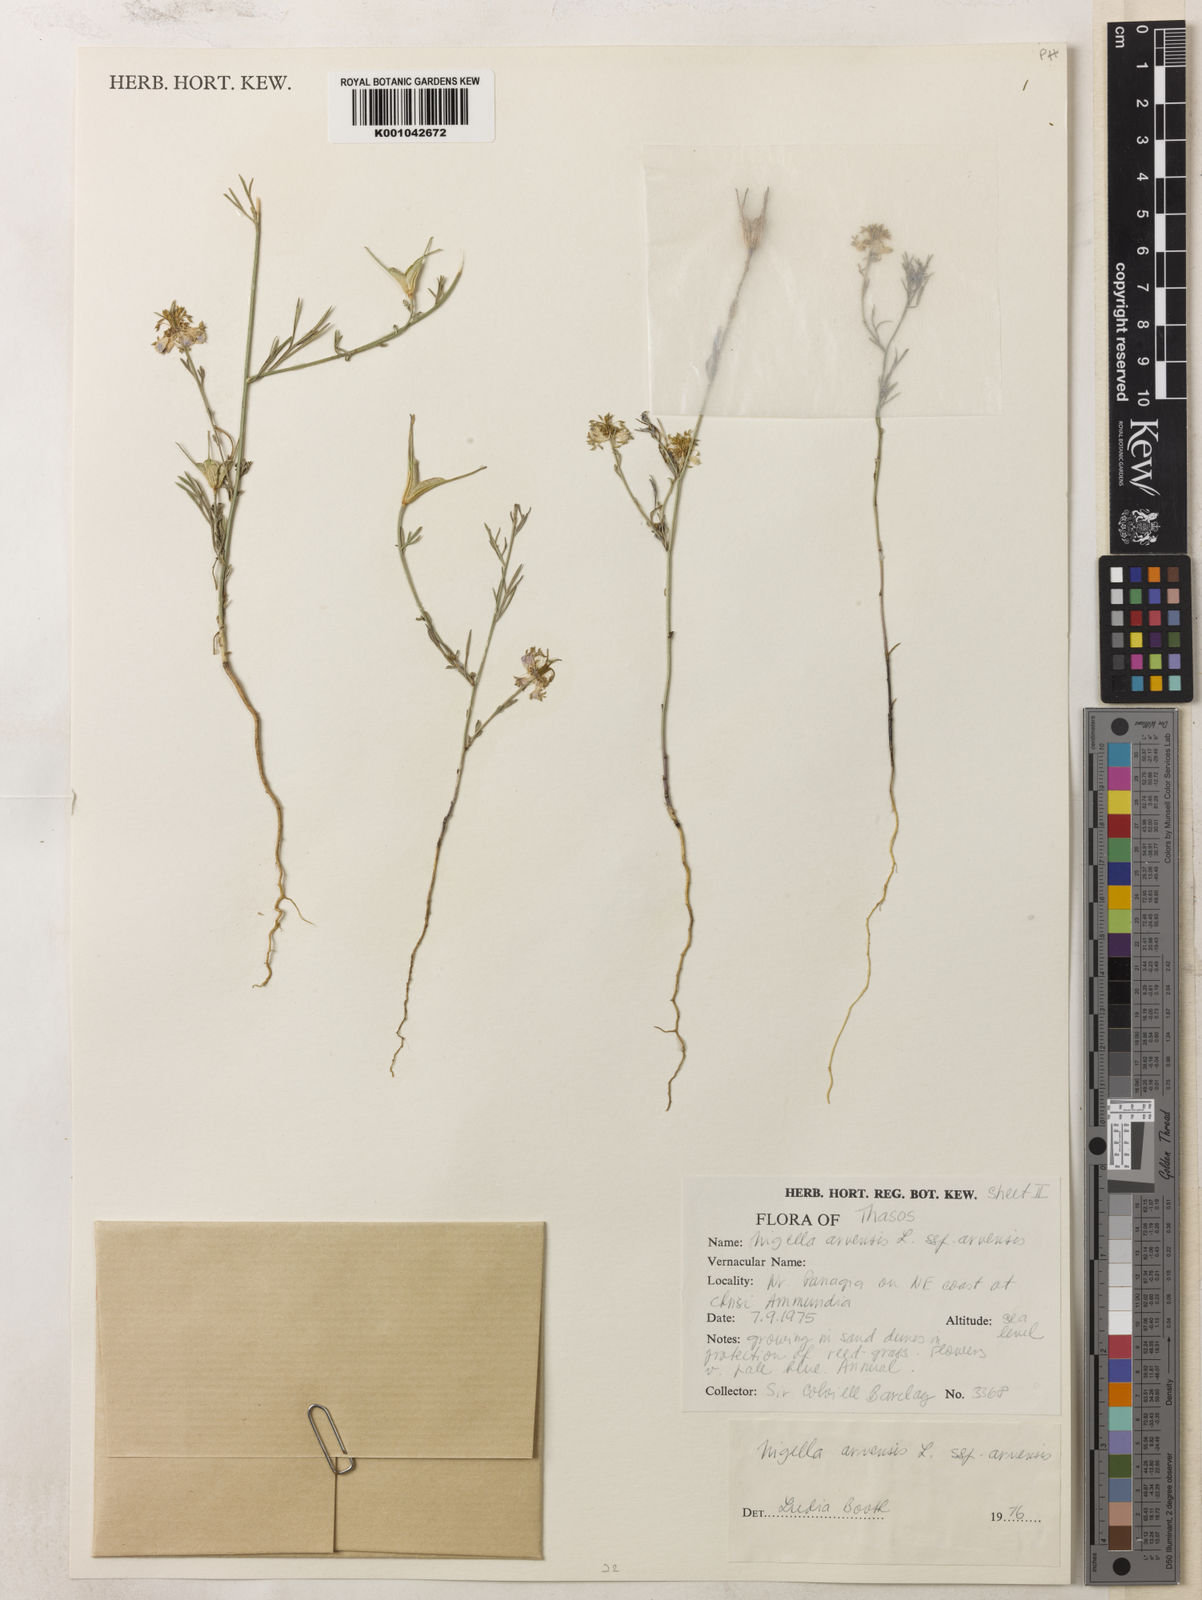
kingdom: Plantae
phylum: Tracheophyta
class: Magnoliopsida
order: Ranunculales
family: Ranunculaceae
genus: Nigella
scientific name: Nigella arvensis
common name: Wild fennel-flower
